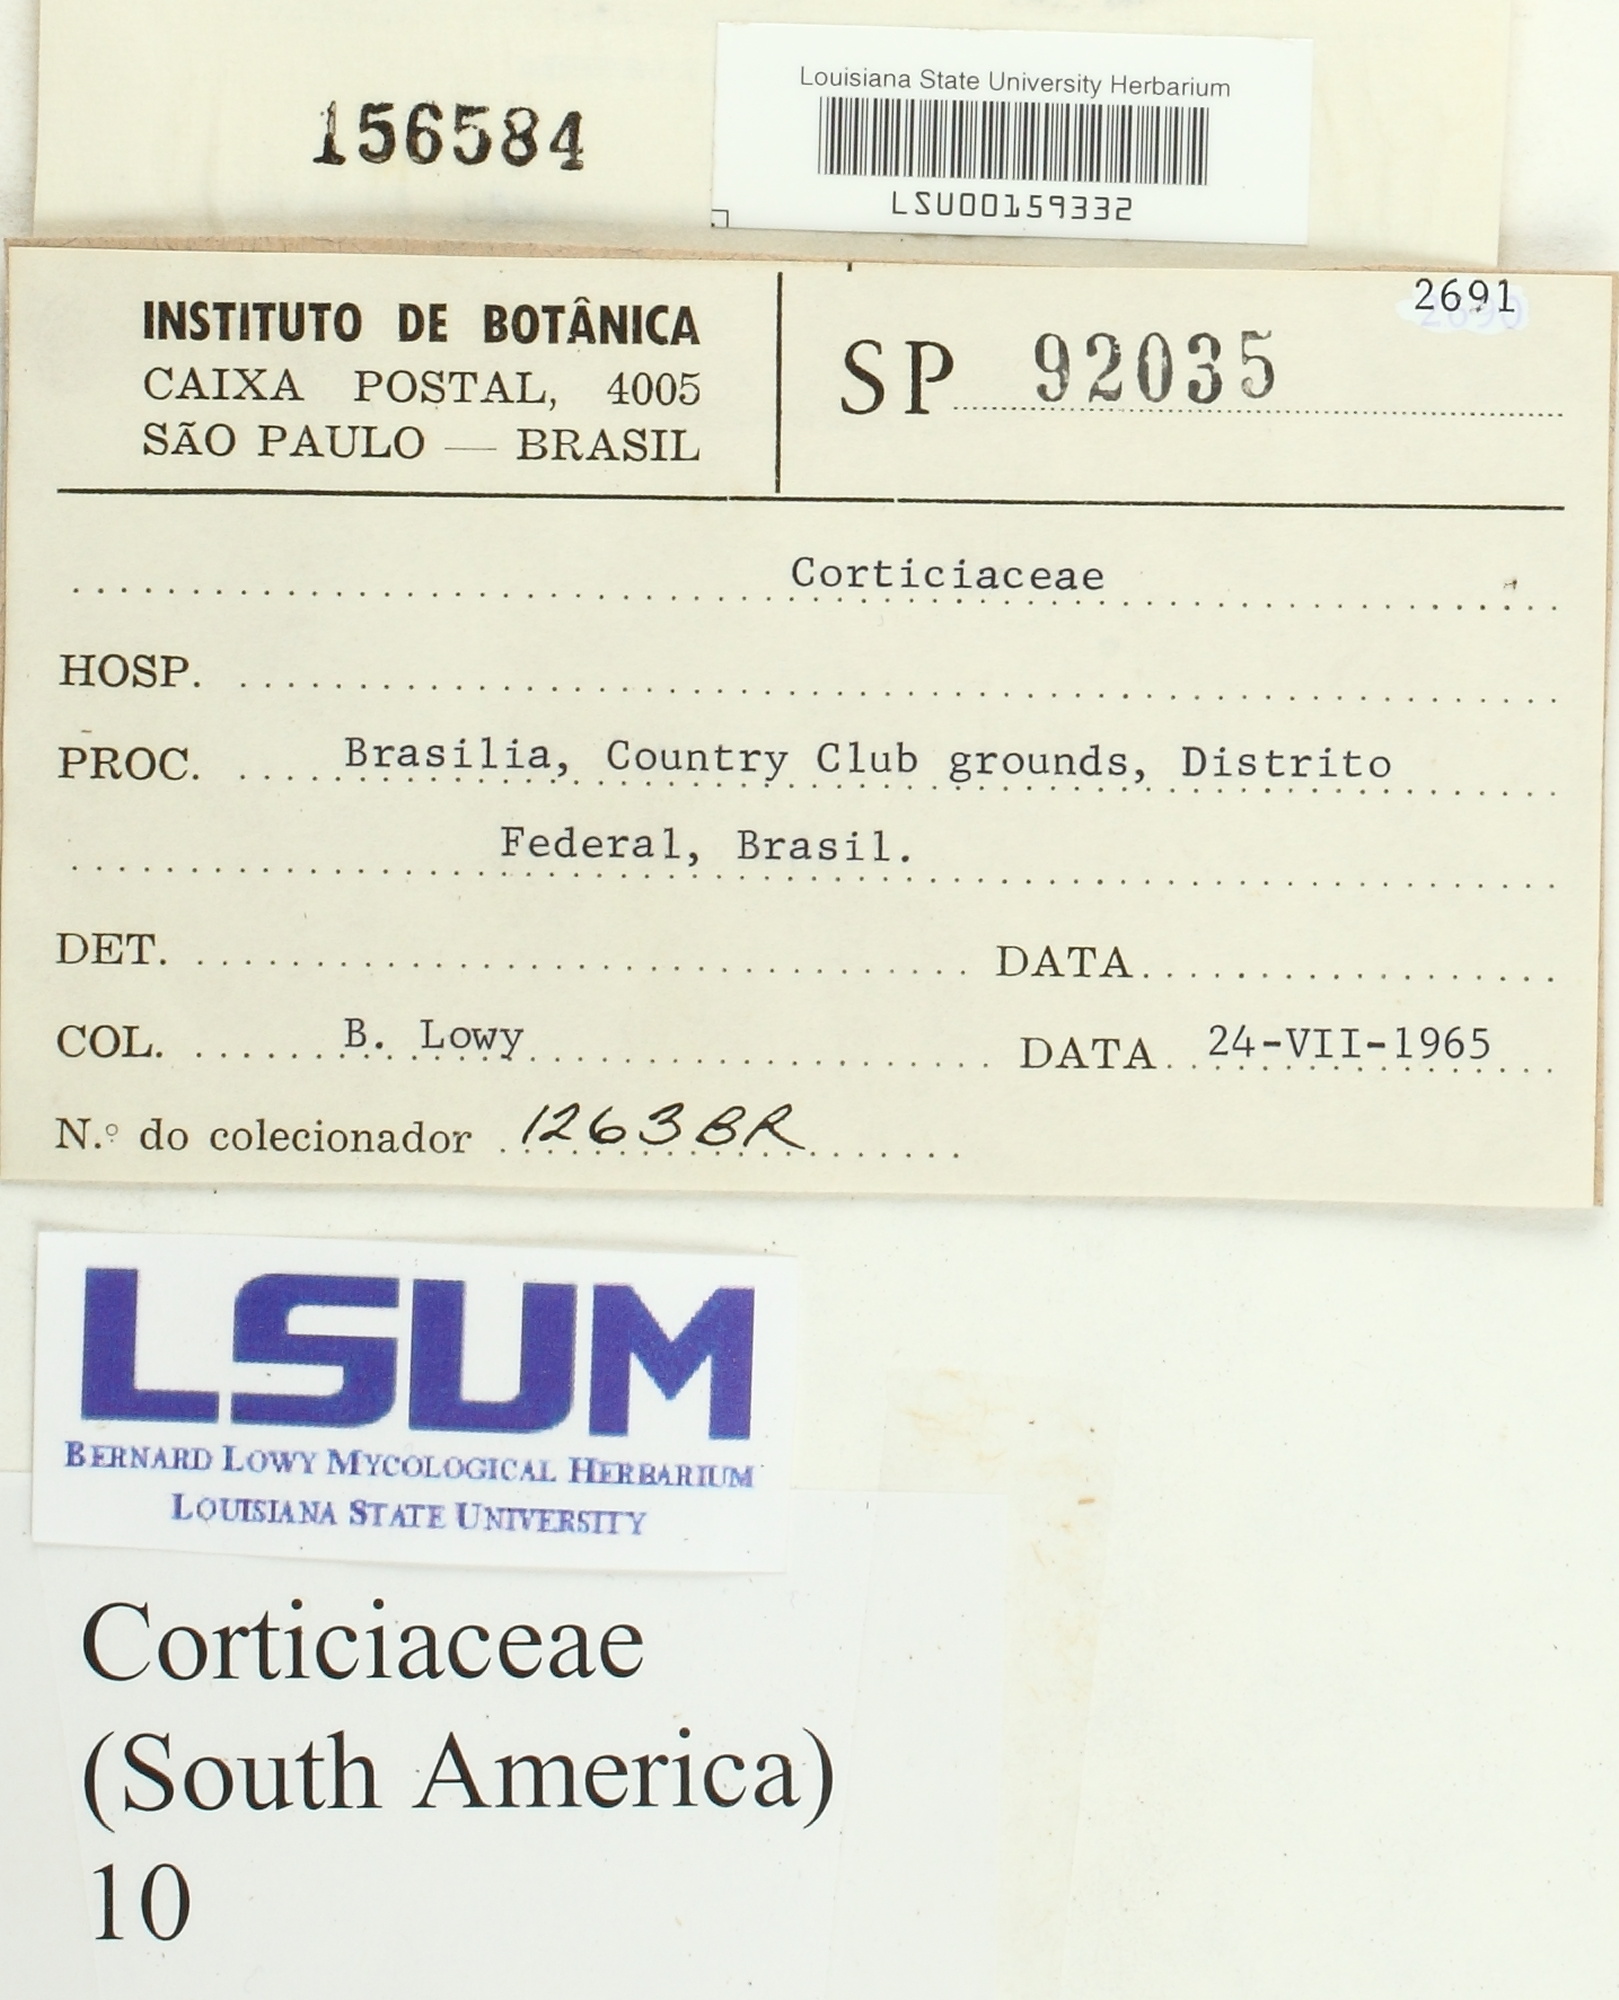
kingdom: Fungi
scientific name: Fungi
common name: Fungi
